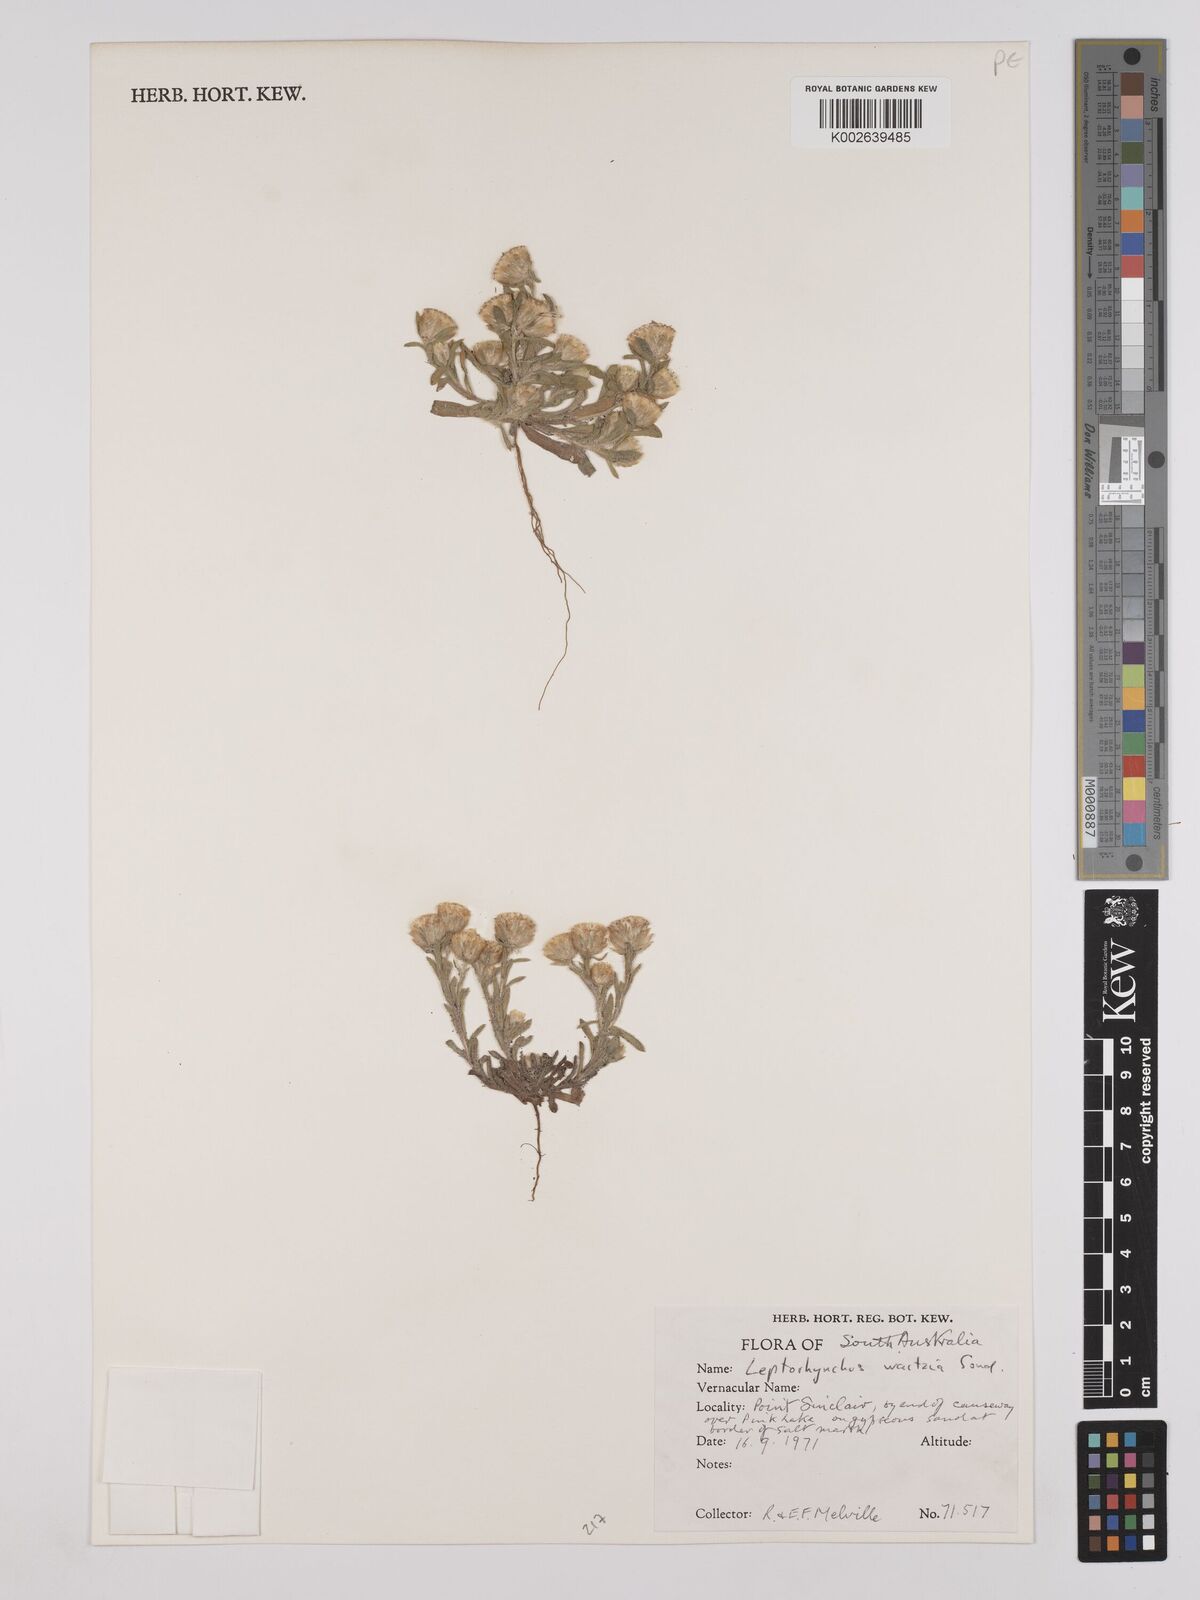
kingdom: Plantae
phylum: Tracheophyta
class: Magnoliopsida
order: Asterales
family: Asteraceae
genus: Leptorhynchos
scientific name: Leptorhynchos waitzia
